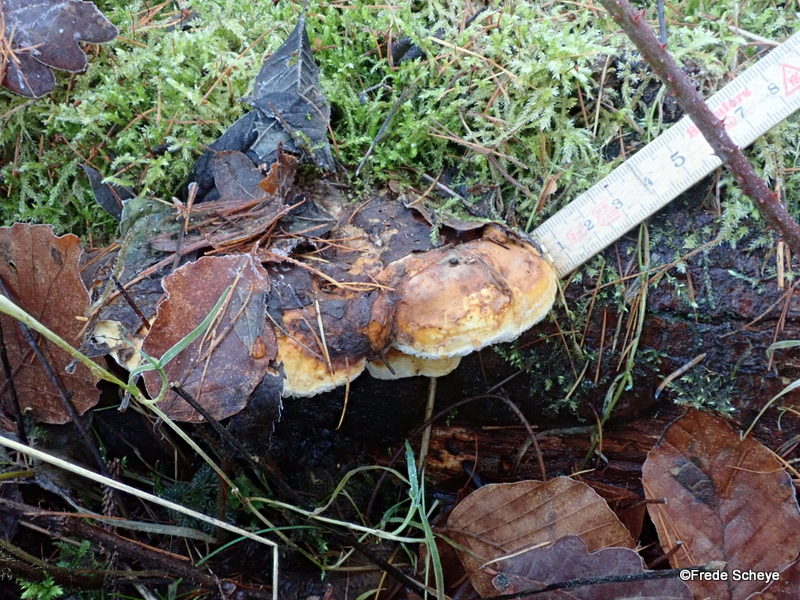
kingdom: Fungi
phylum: Basidiomycota
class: Agaricomycetes
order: Polyporales
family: Fomitopsidaceae
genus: Fomitopsis
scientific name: Fomitopsis pinicola
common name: randbæltet hovporesvamp
